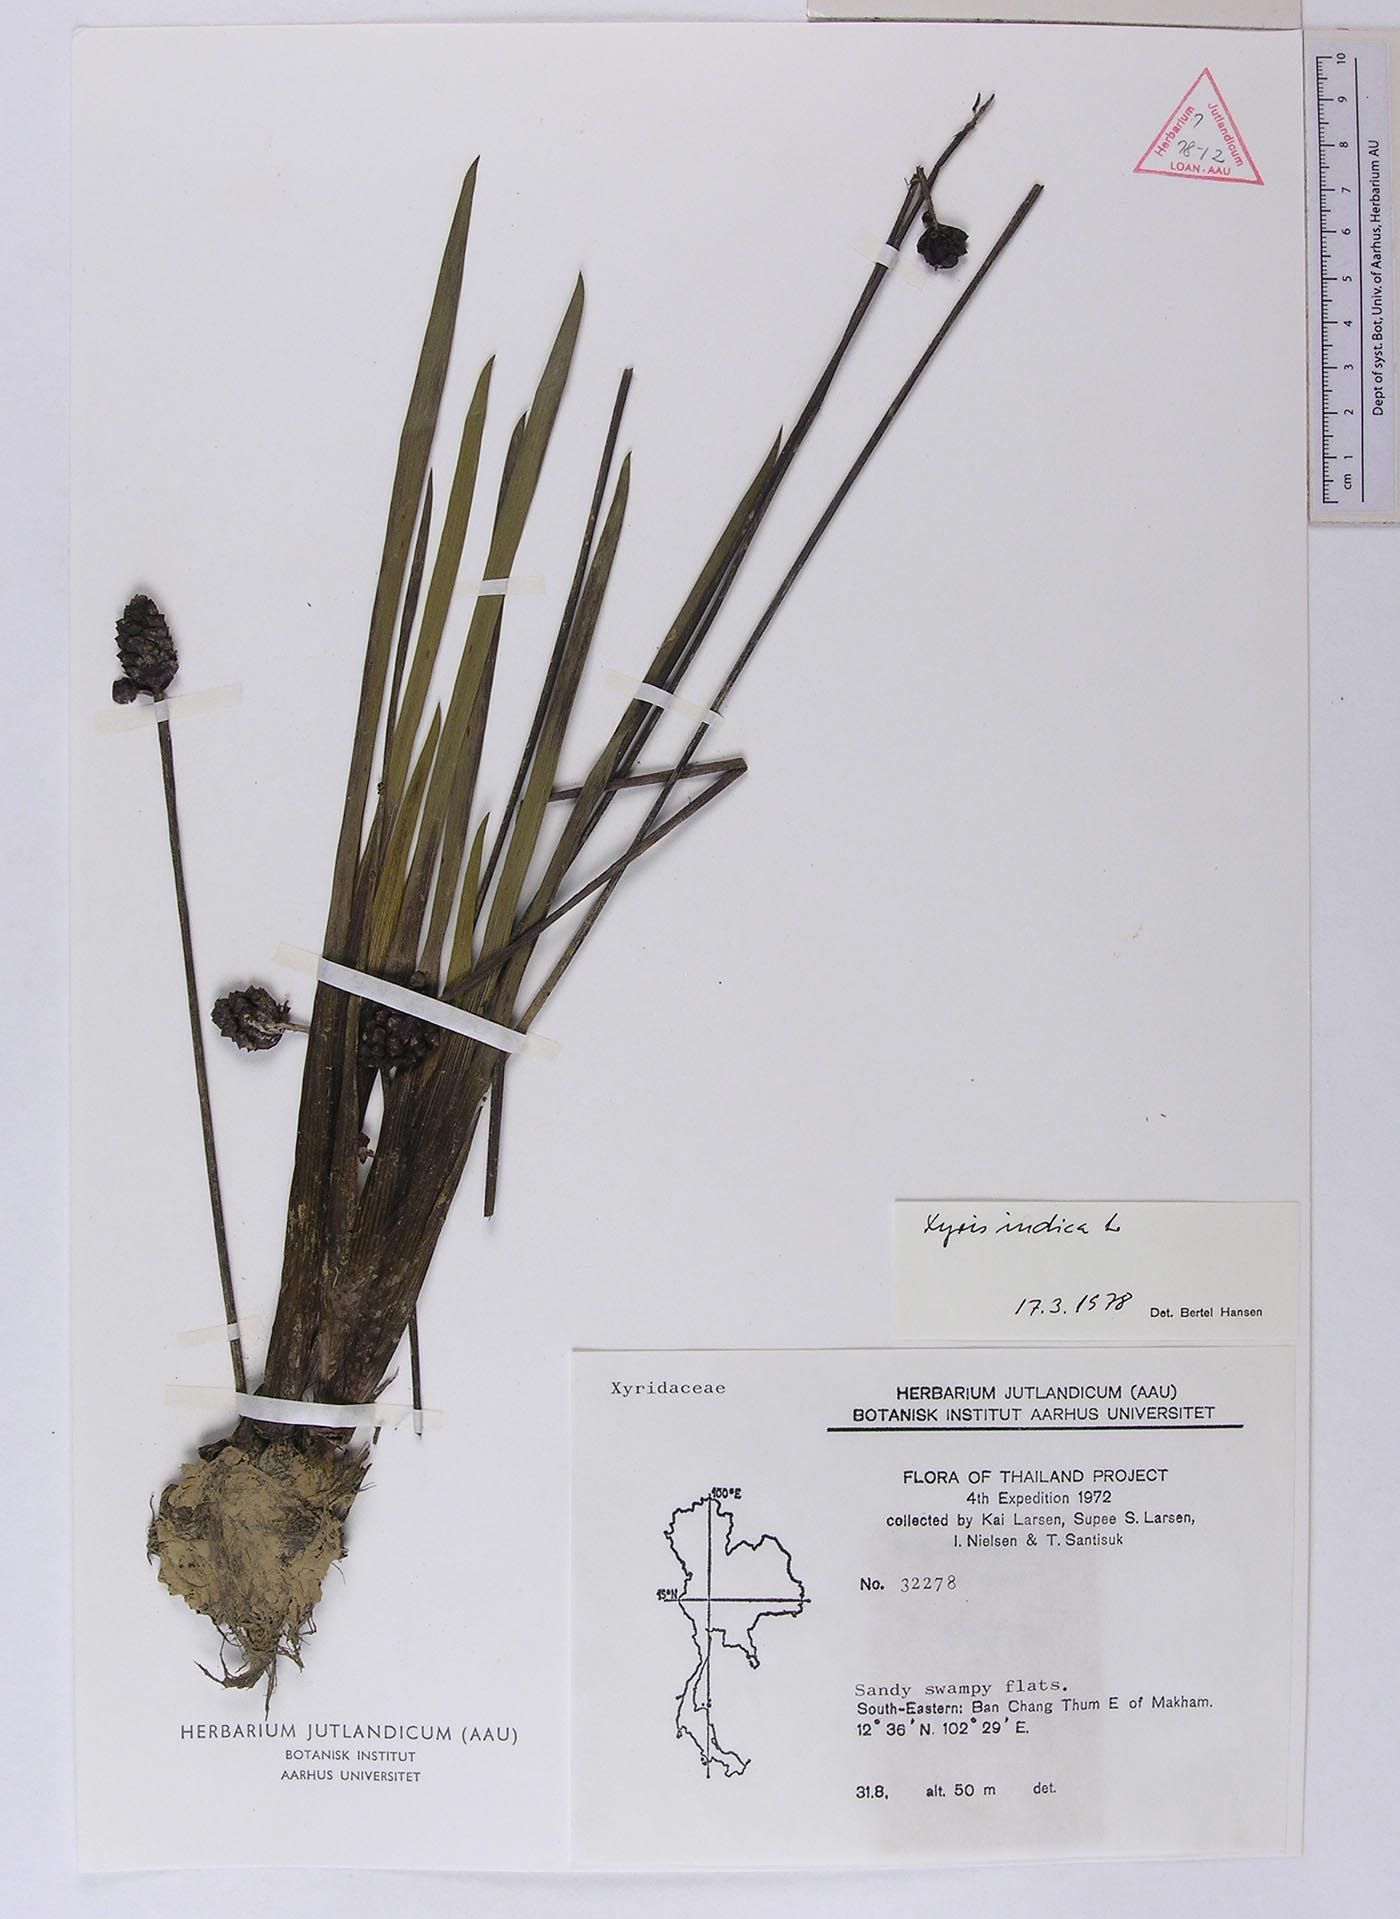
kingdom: Plantae
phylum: Tracheophyta
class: Liliopsida
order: Poales
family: Xyridaceae
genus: Xyris
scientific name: Xyris indica
